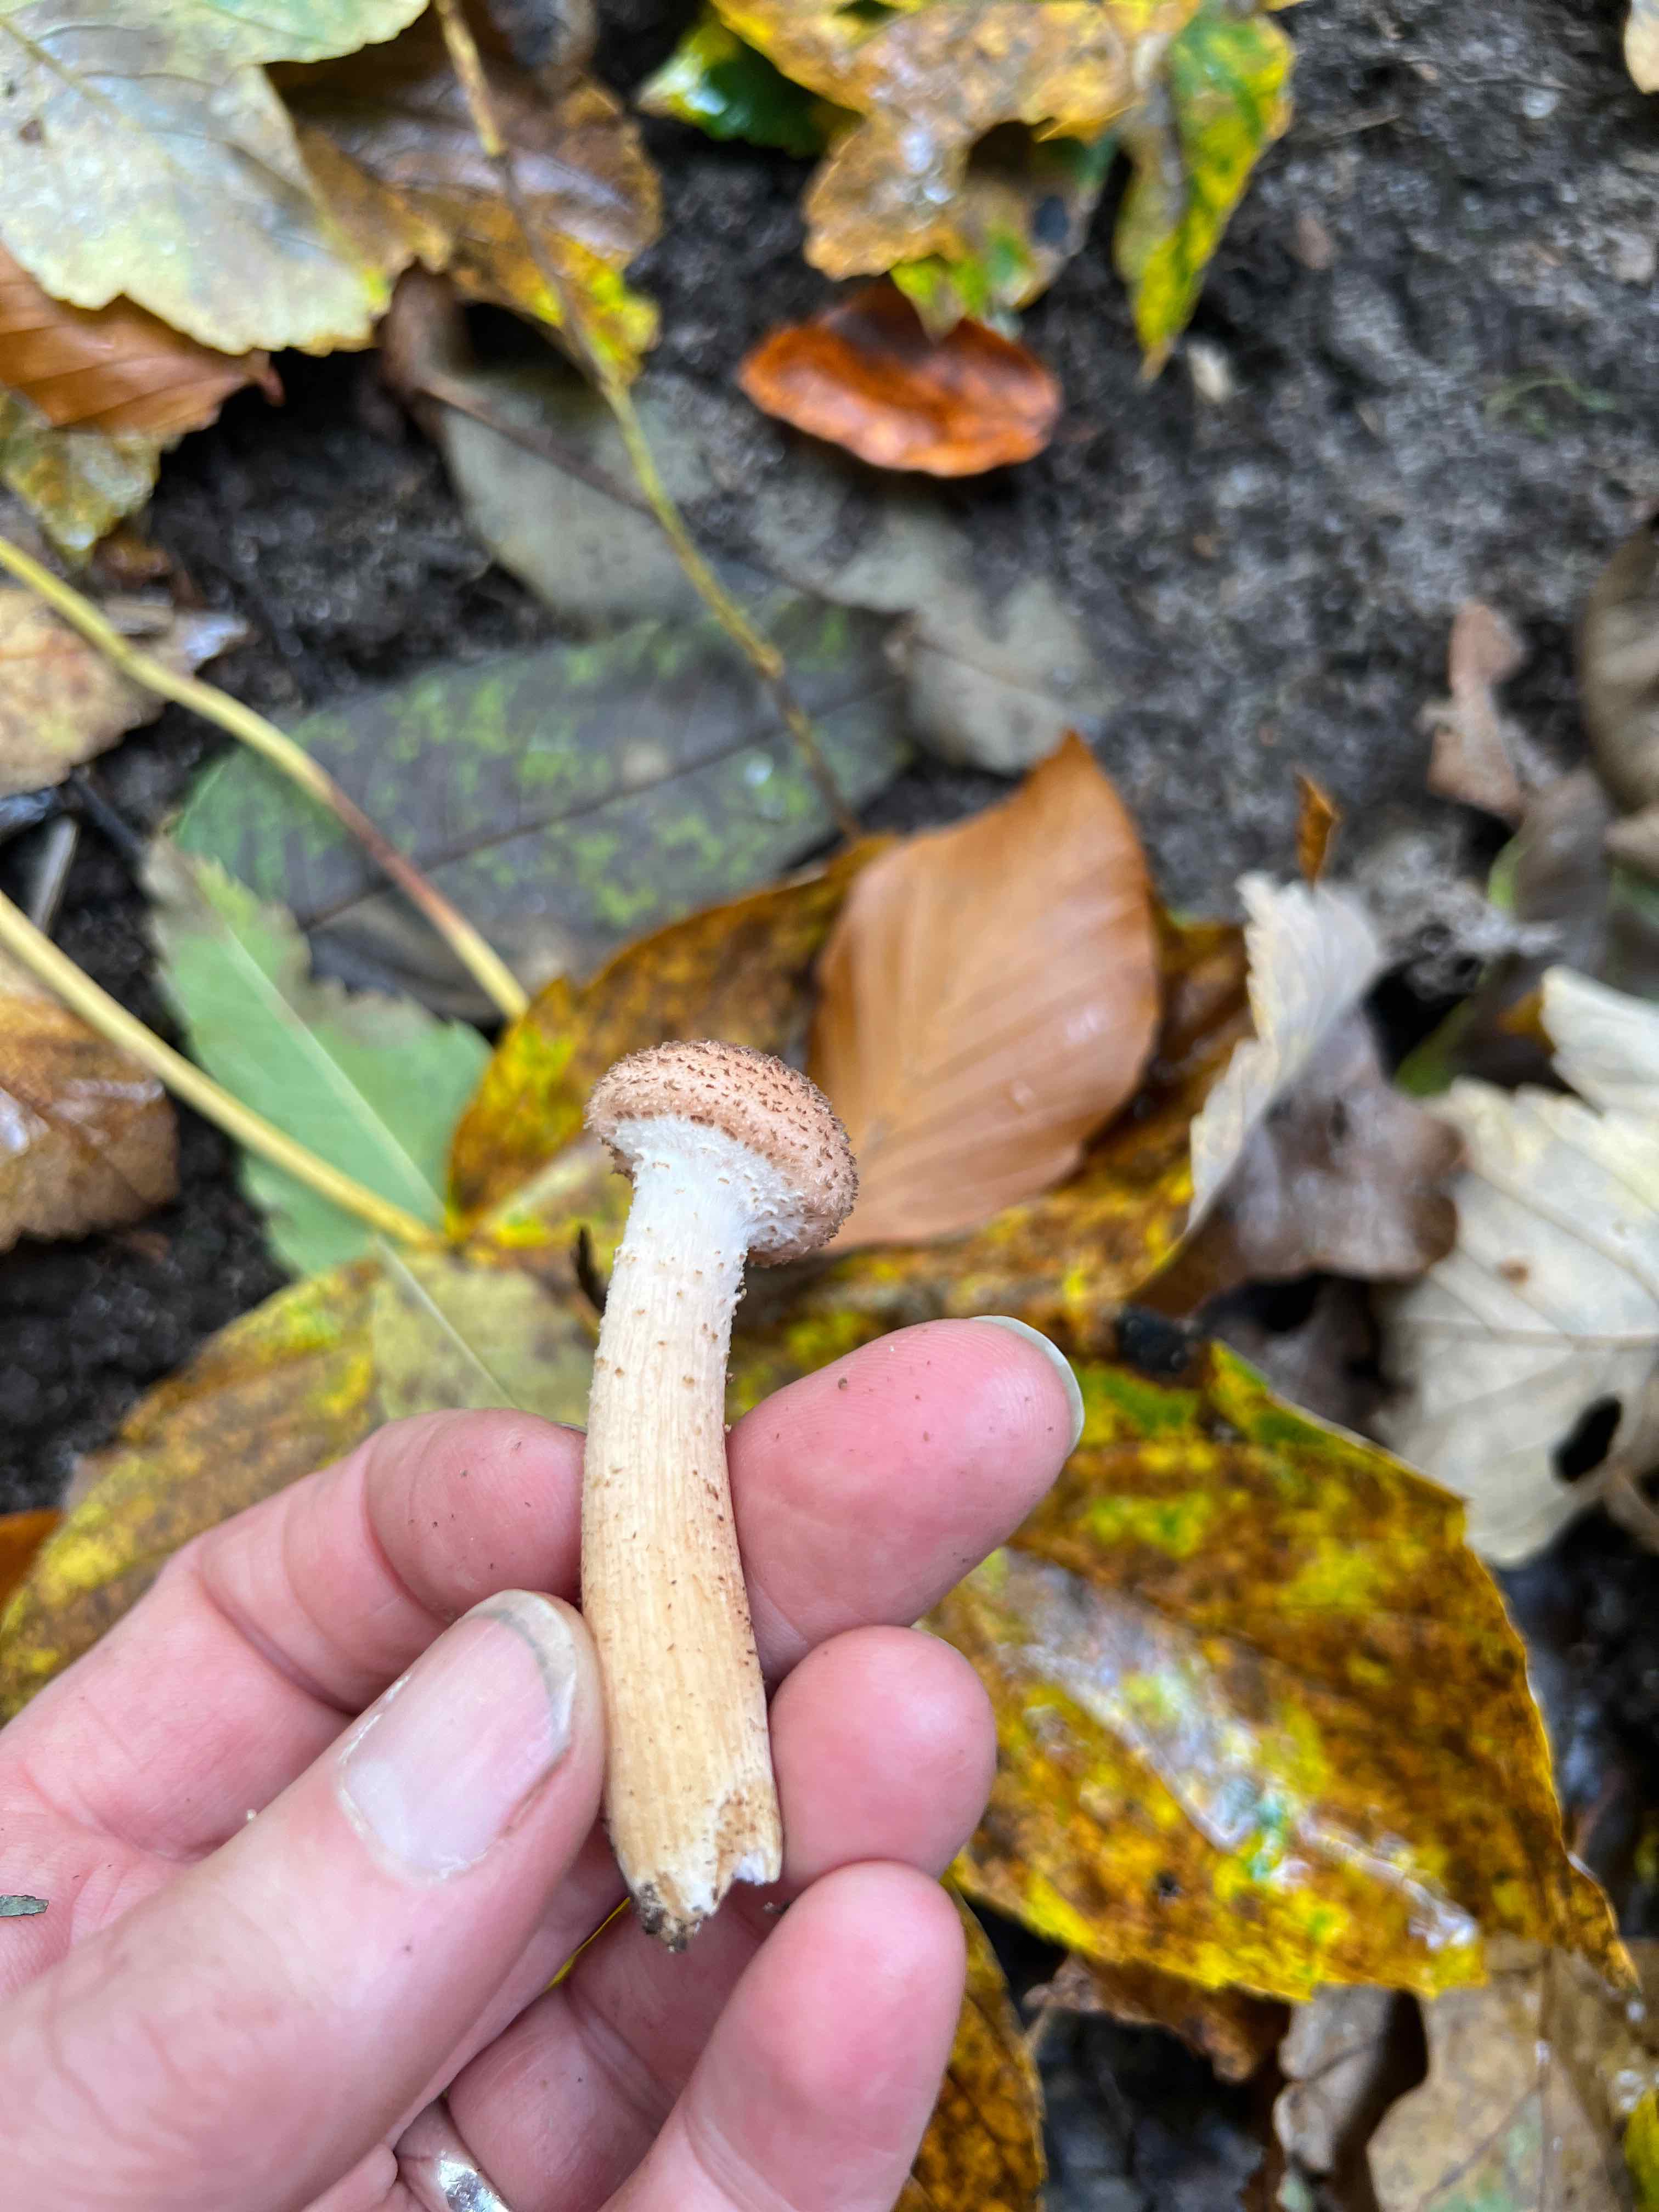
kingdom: Fungi
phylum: Basidiomycota
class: Agaricomycetes
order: Agaricales
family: Physalacriaceae
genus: Armillaria
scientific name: Armillaria
